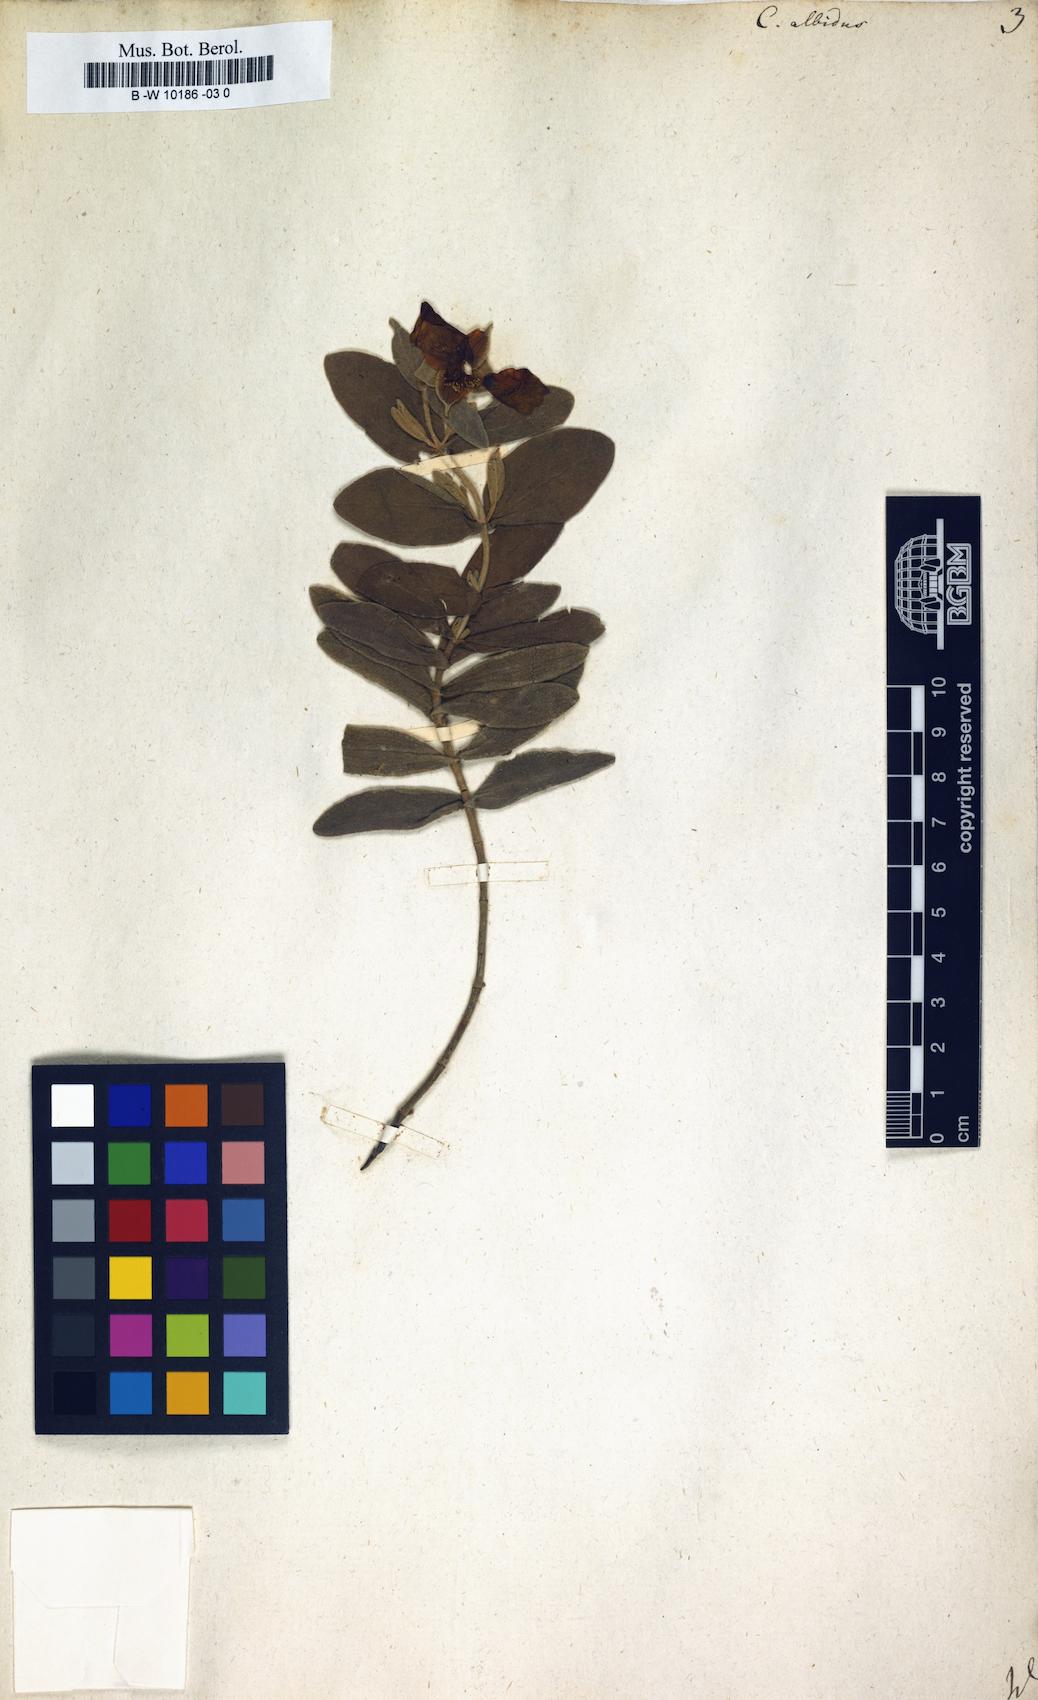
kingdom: Plantae
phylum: Tracheophyta
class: Magnoliopsida
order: Malvales
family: Cistaceae
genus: Cistus
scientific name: Cistus albidus
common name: White-leaf rock-rose
